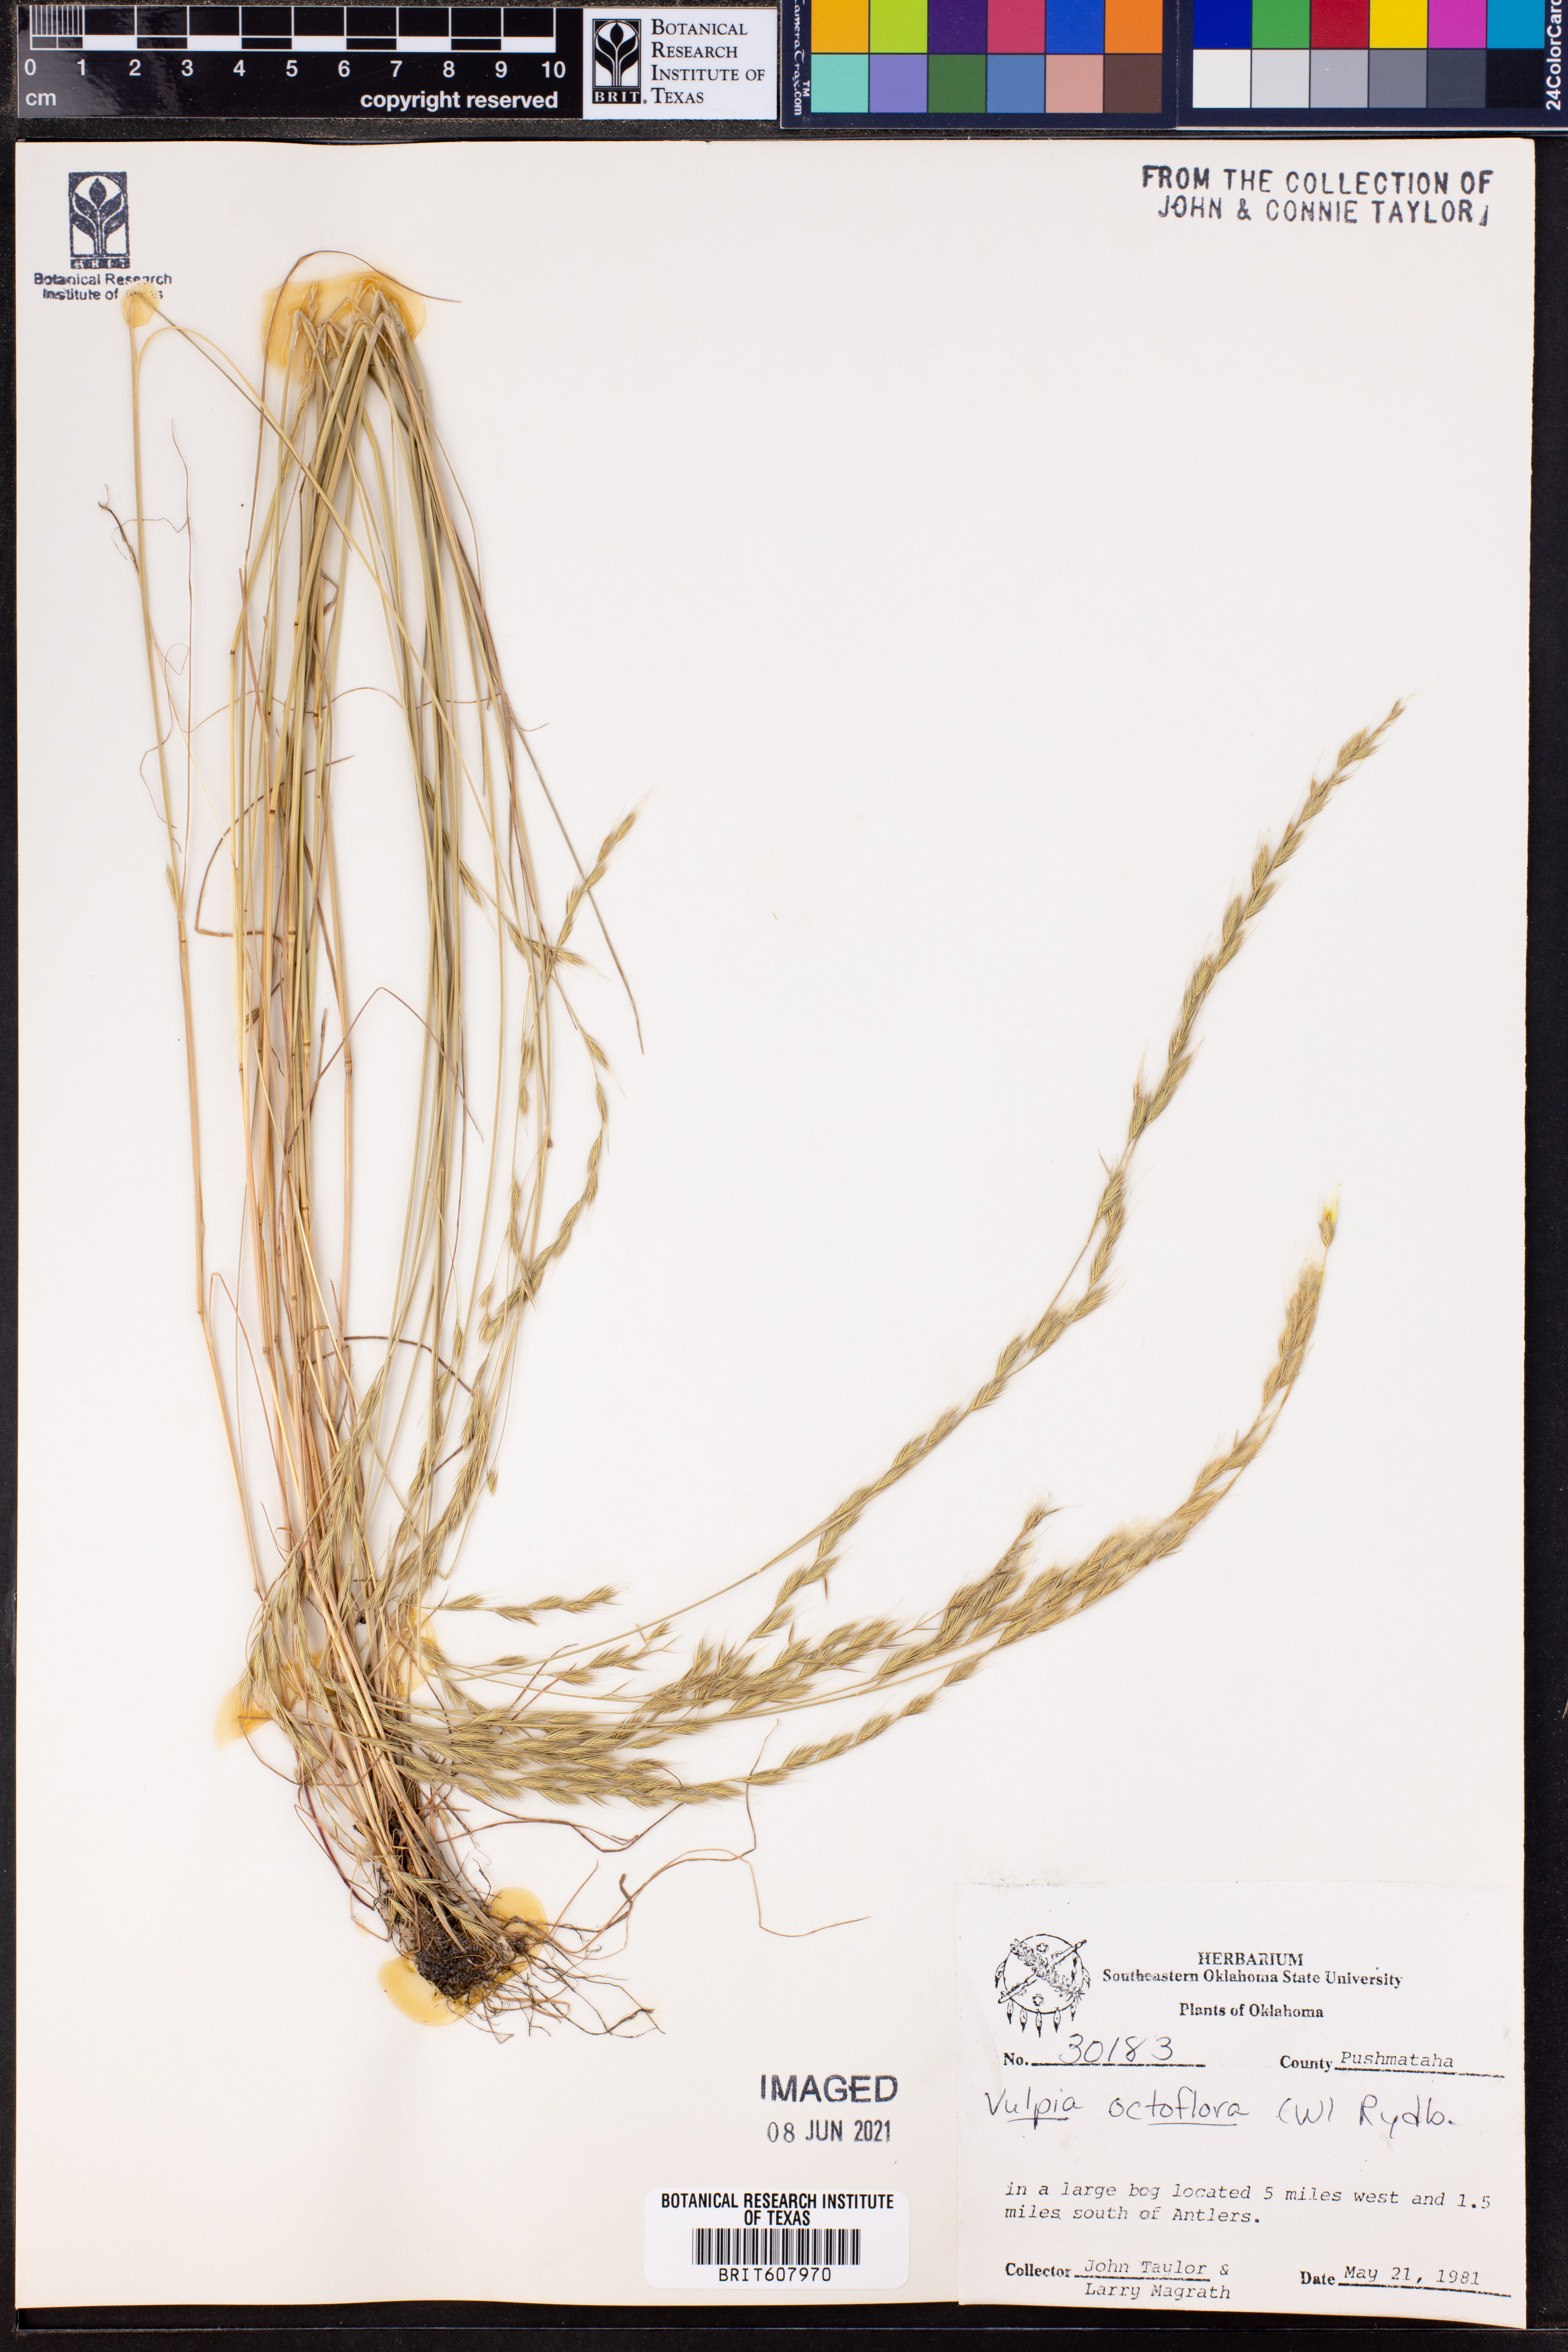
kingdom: Plantae
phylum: Tracheophyta
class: Liliopsida
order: Poales
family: Poaceae
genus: Festuca
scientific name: Festuca octoflora
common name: Sixweeks grass
